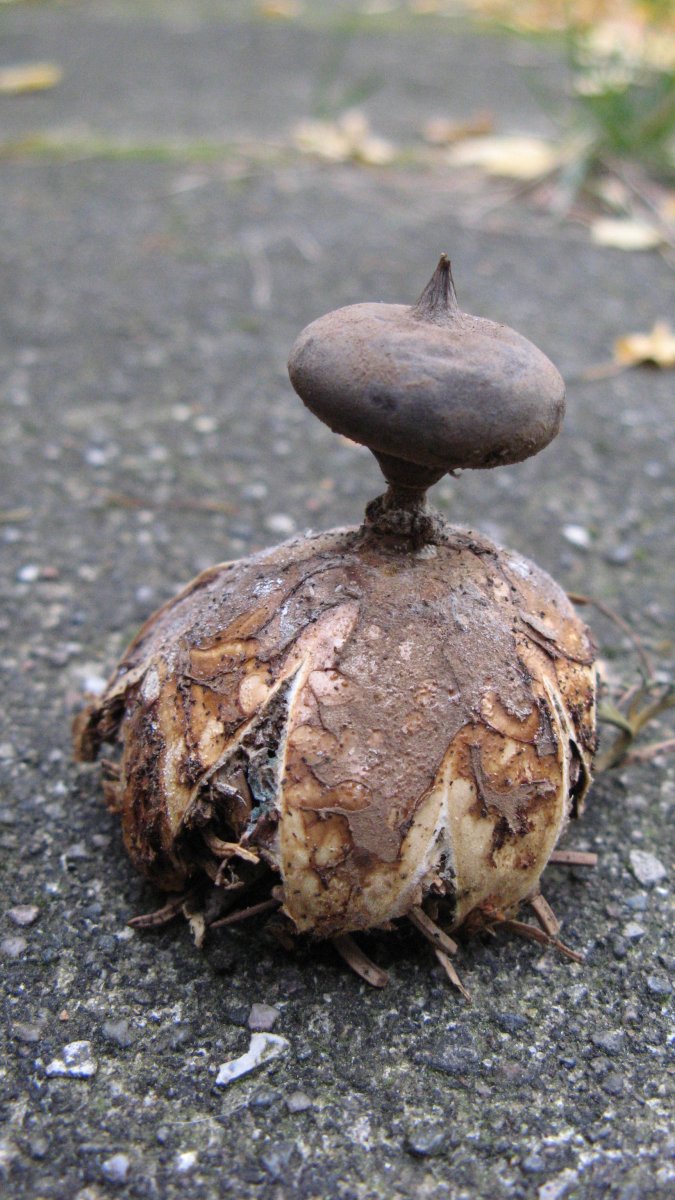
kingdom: Fungi
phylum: Basidiomycota
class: Agaricomycetes
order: Geastrales
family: Geastraceae
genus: Geastrum
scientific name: Geastrum pectinatum
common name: stilket stjernebold
